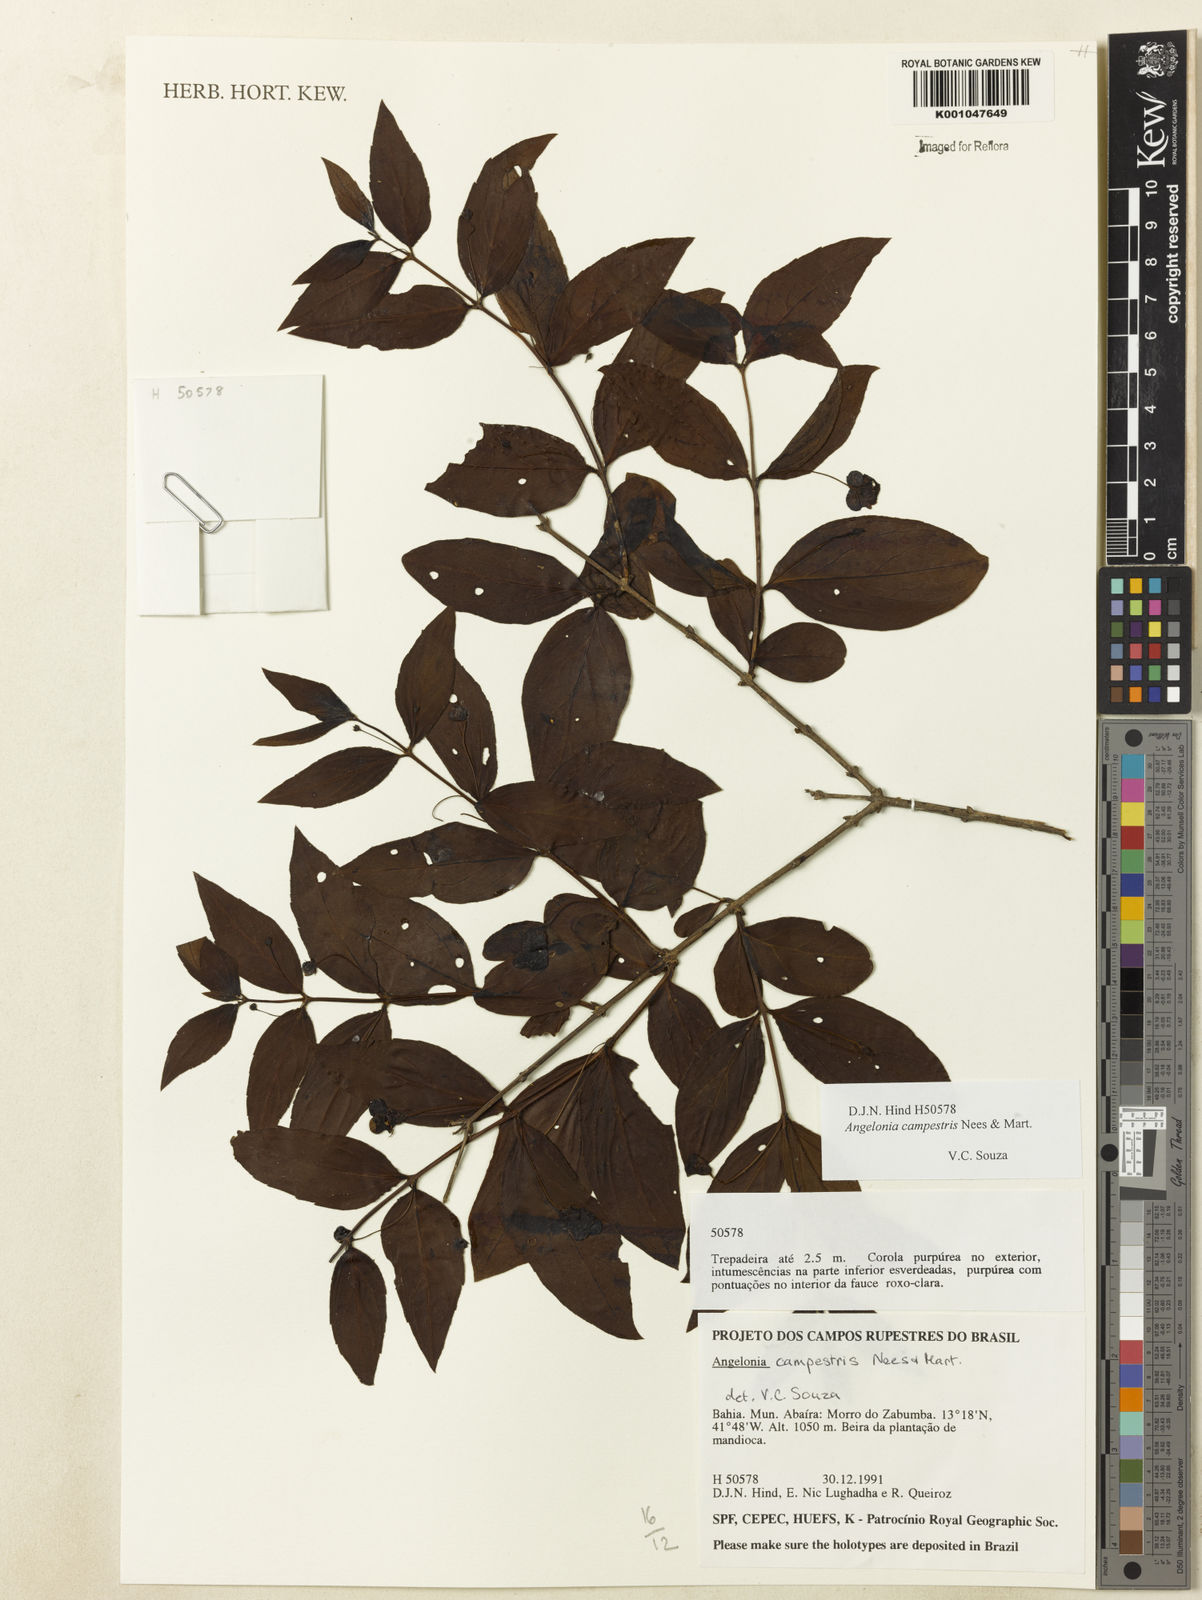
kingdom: Plantae
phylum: Tracheophyta
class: Magnoliopsida
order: Lamiales
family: Plantaginaceae
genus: Angelonia
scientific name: Angelonia campestris
